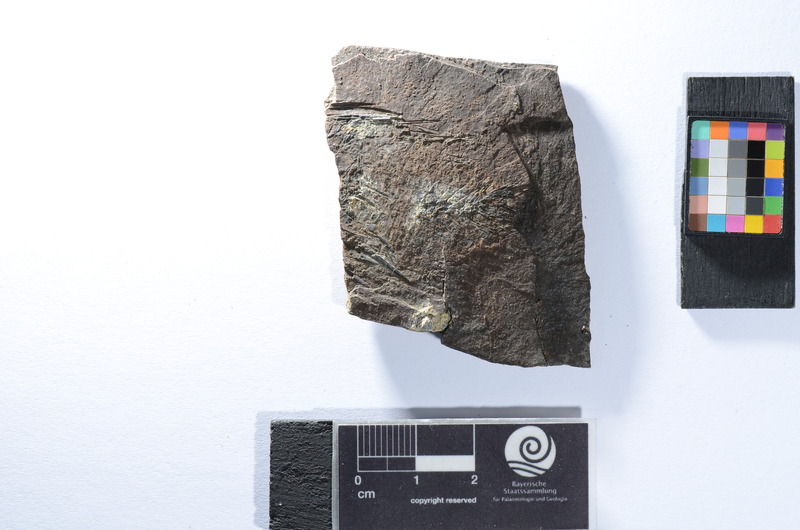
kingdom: Animalia
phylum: Chordata
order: Perciformes
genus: Smerdis
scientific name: Smerdis micracanthus
